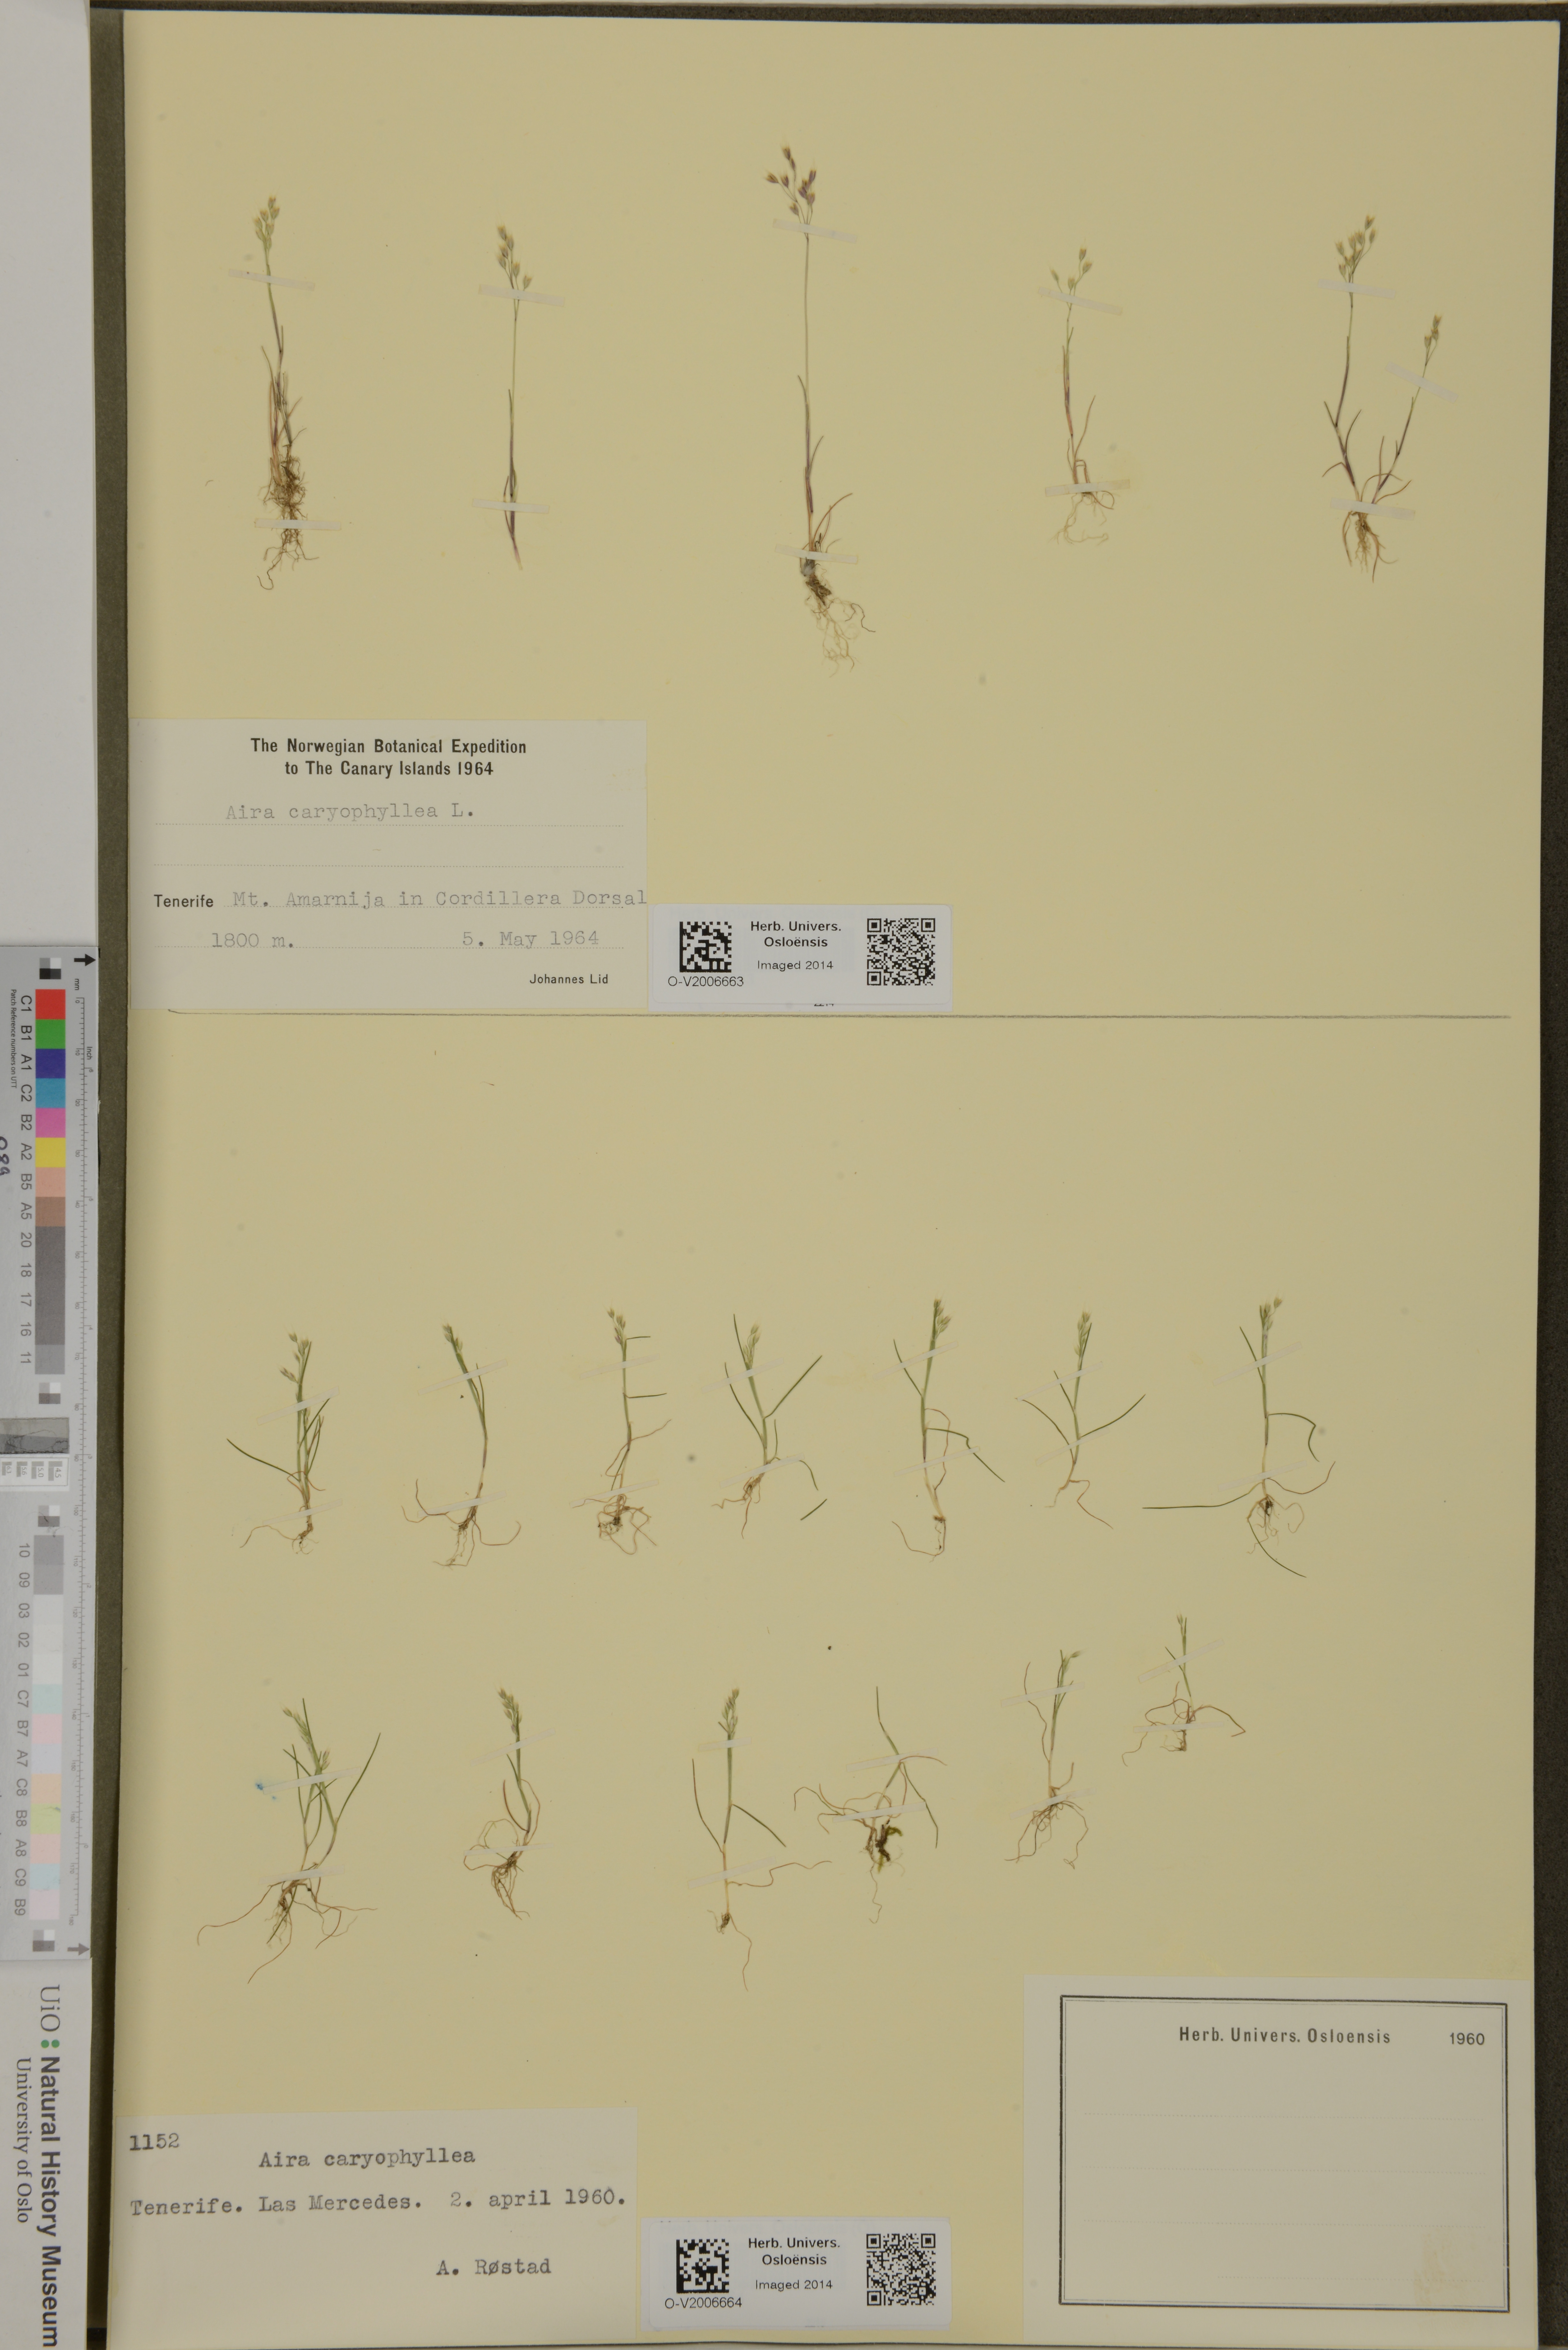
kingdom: Plantae
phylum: Tracheophyta
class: Liliopsida
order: Poales
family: Poaceae
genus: Aira
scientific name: Aira caryophyllea
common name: Silver hairgrass
